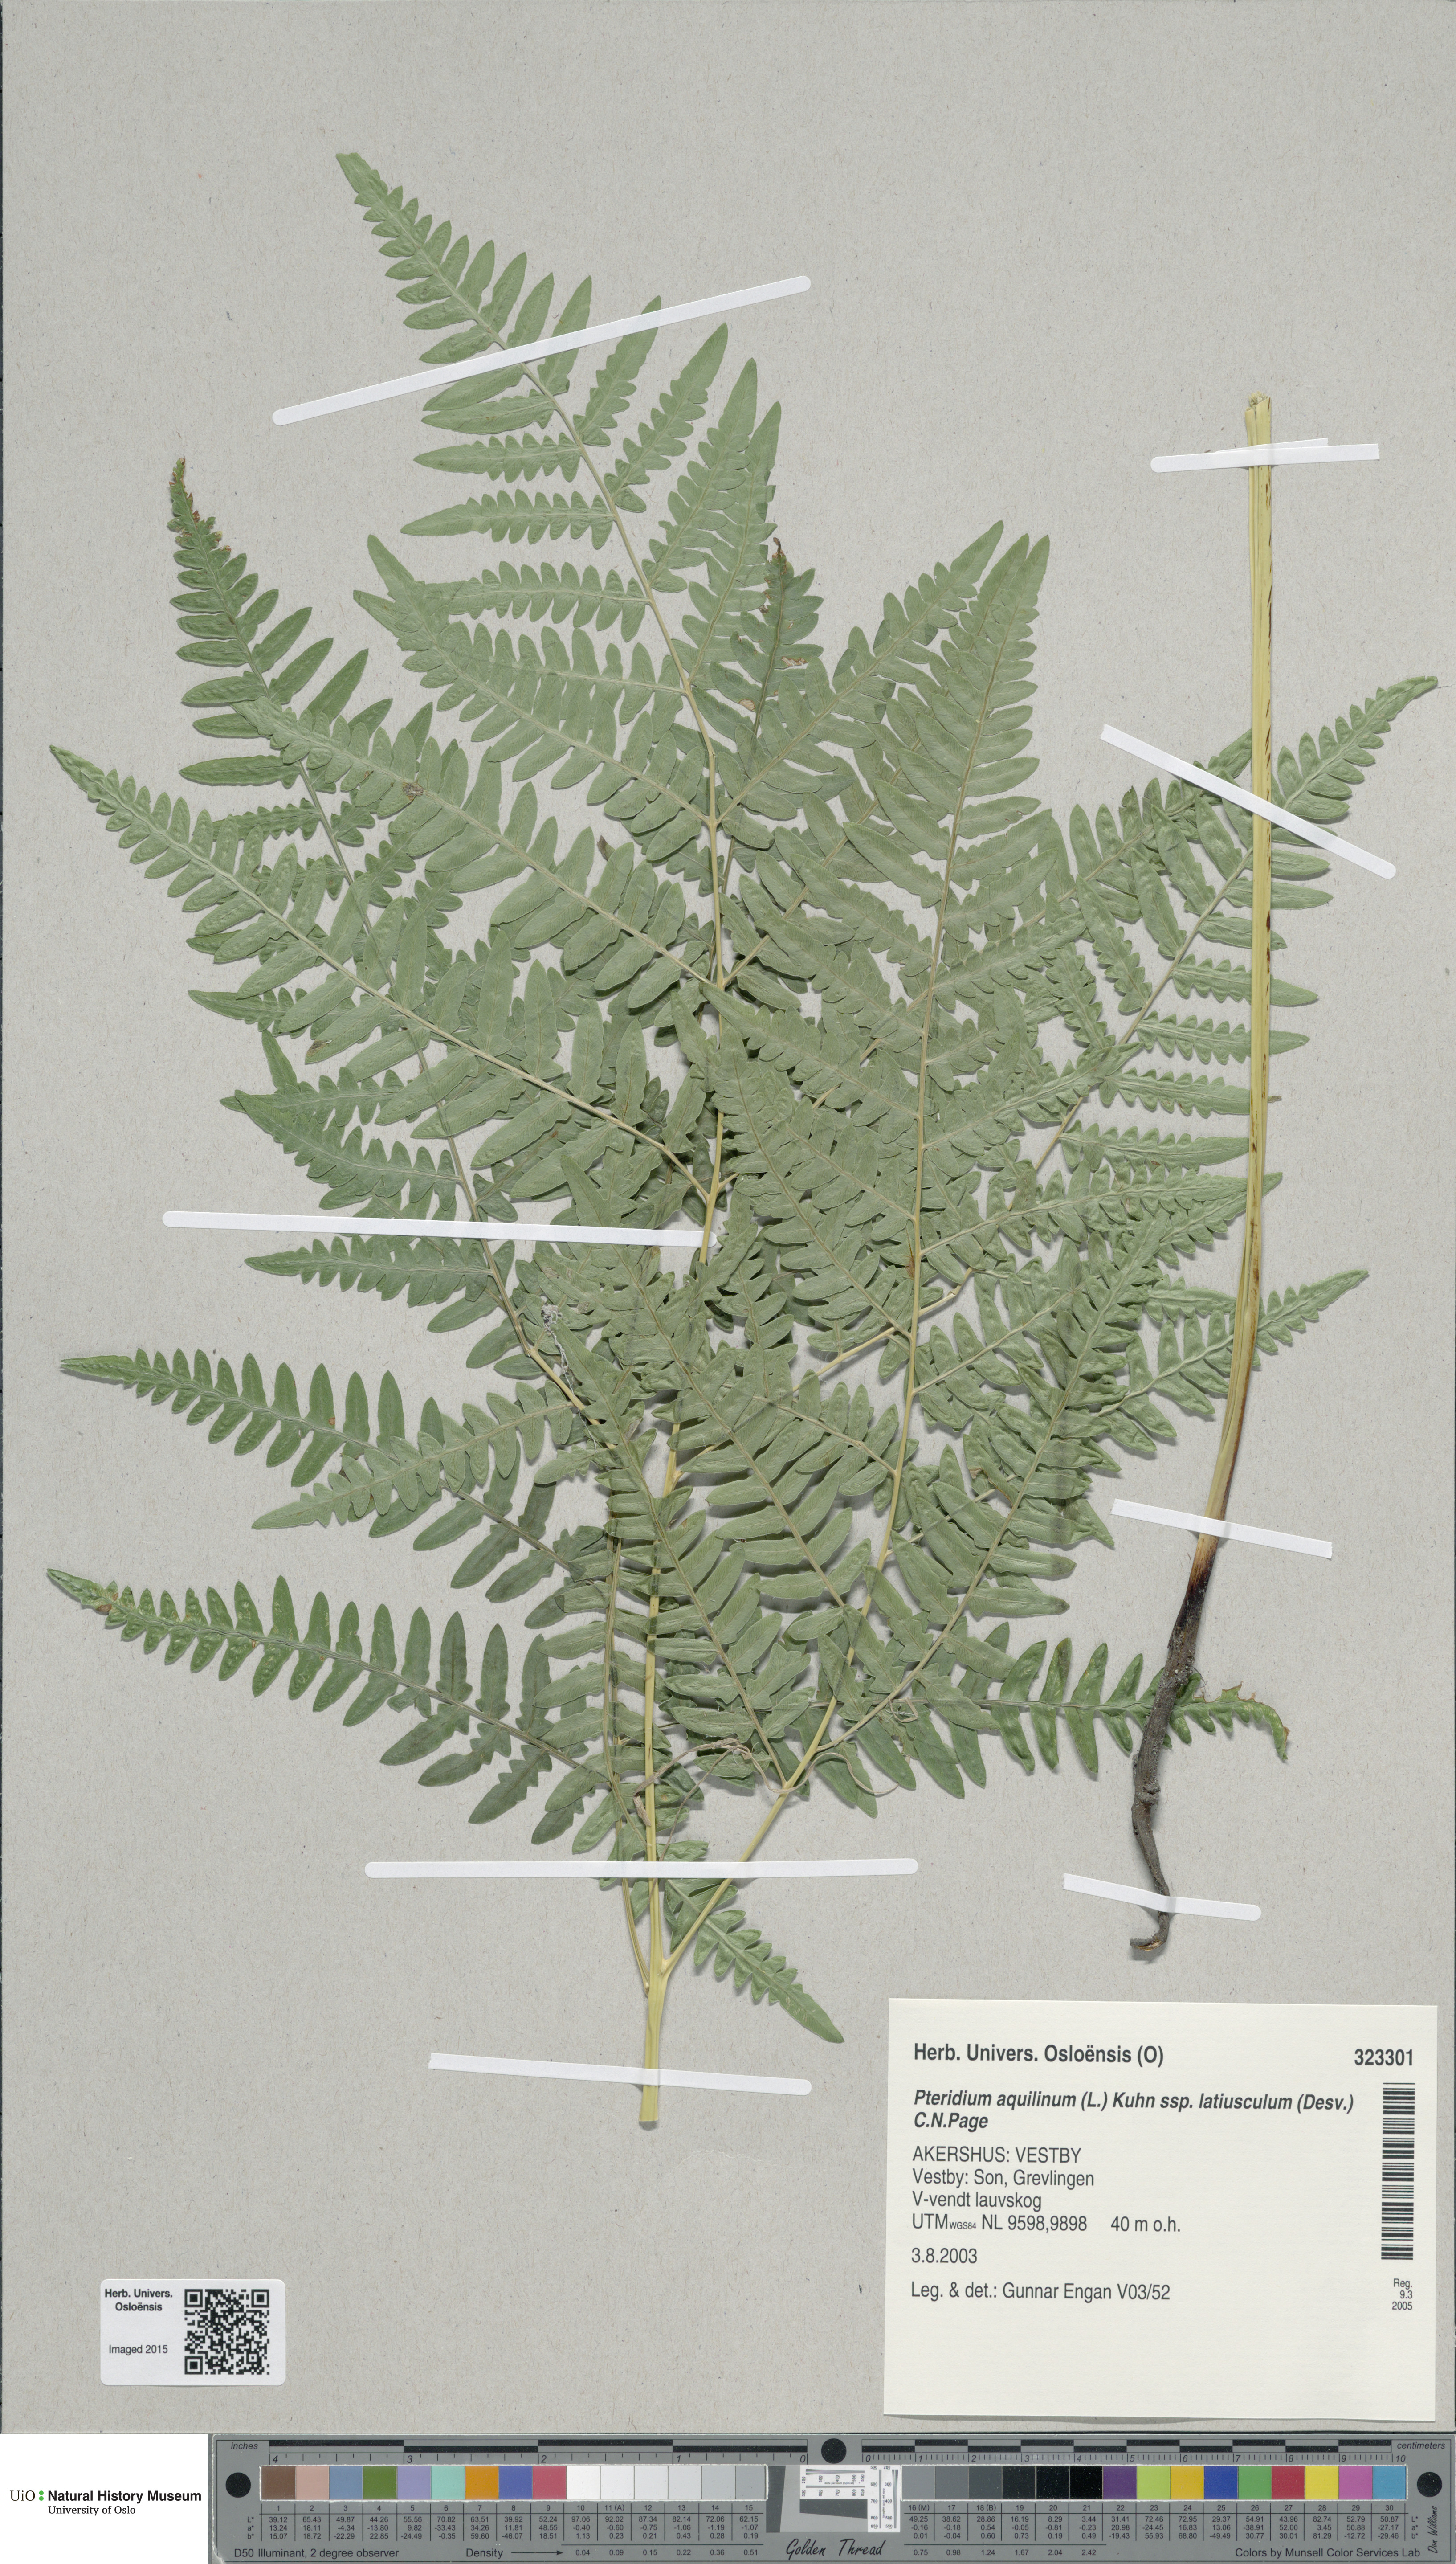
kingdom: Plantae
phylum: Tracheophyta
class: Polypodiopsida
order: Polypodiales
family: Dennstaedtiaceae
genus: Pteridium
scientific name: Pteridium aquilinum
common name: Bracken
